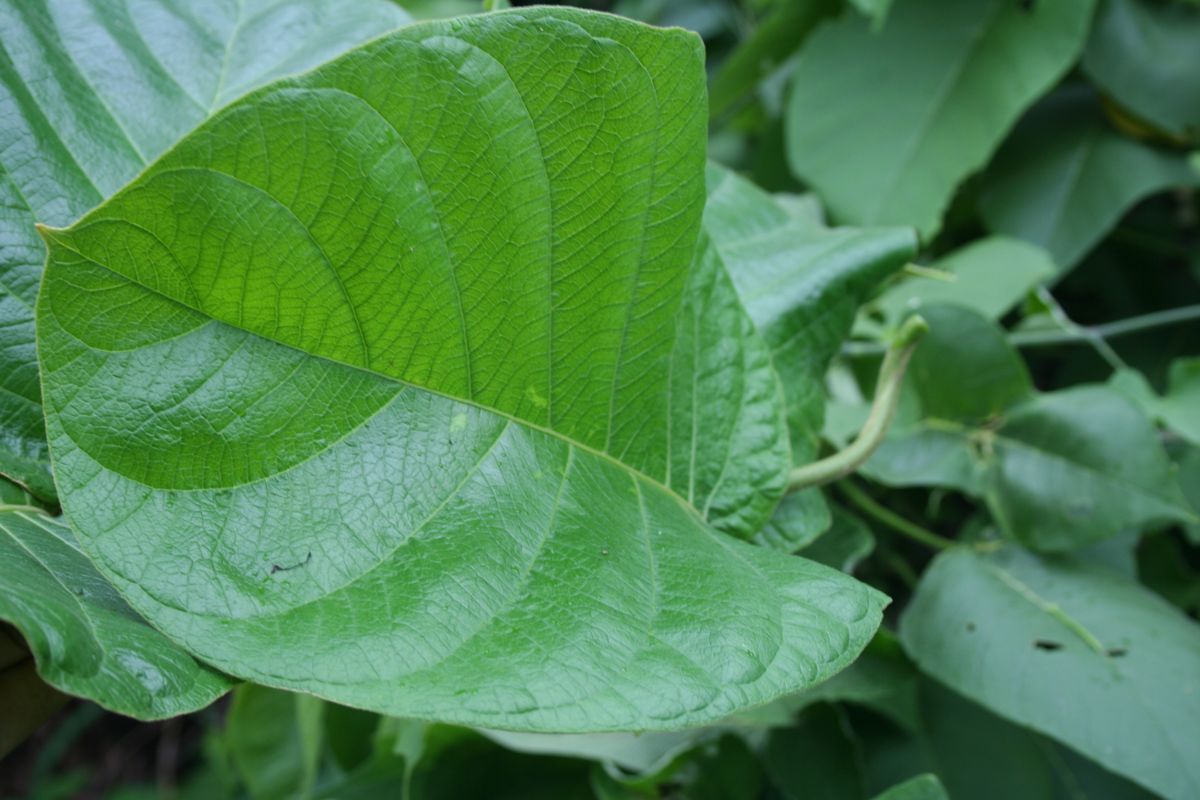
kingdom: Plantae
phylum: Tracheophyta
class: Magnoliopsida
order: Gentianales
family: Apocynaceae
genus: Prestonia
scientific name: Prestonia mexicana
